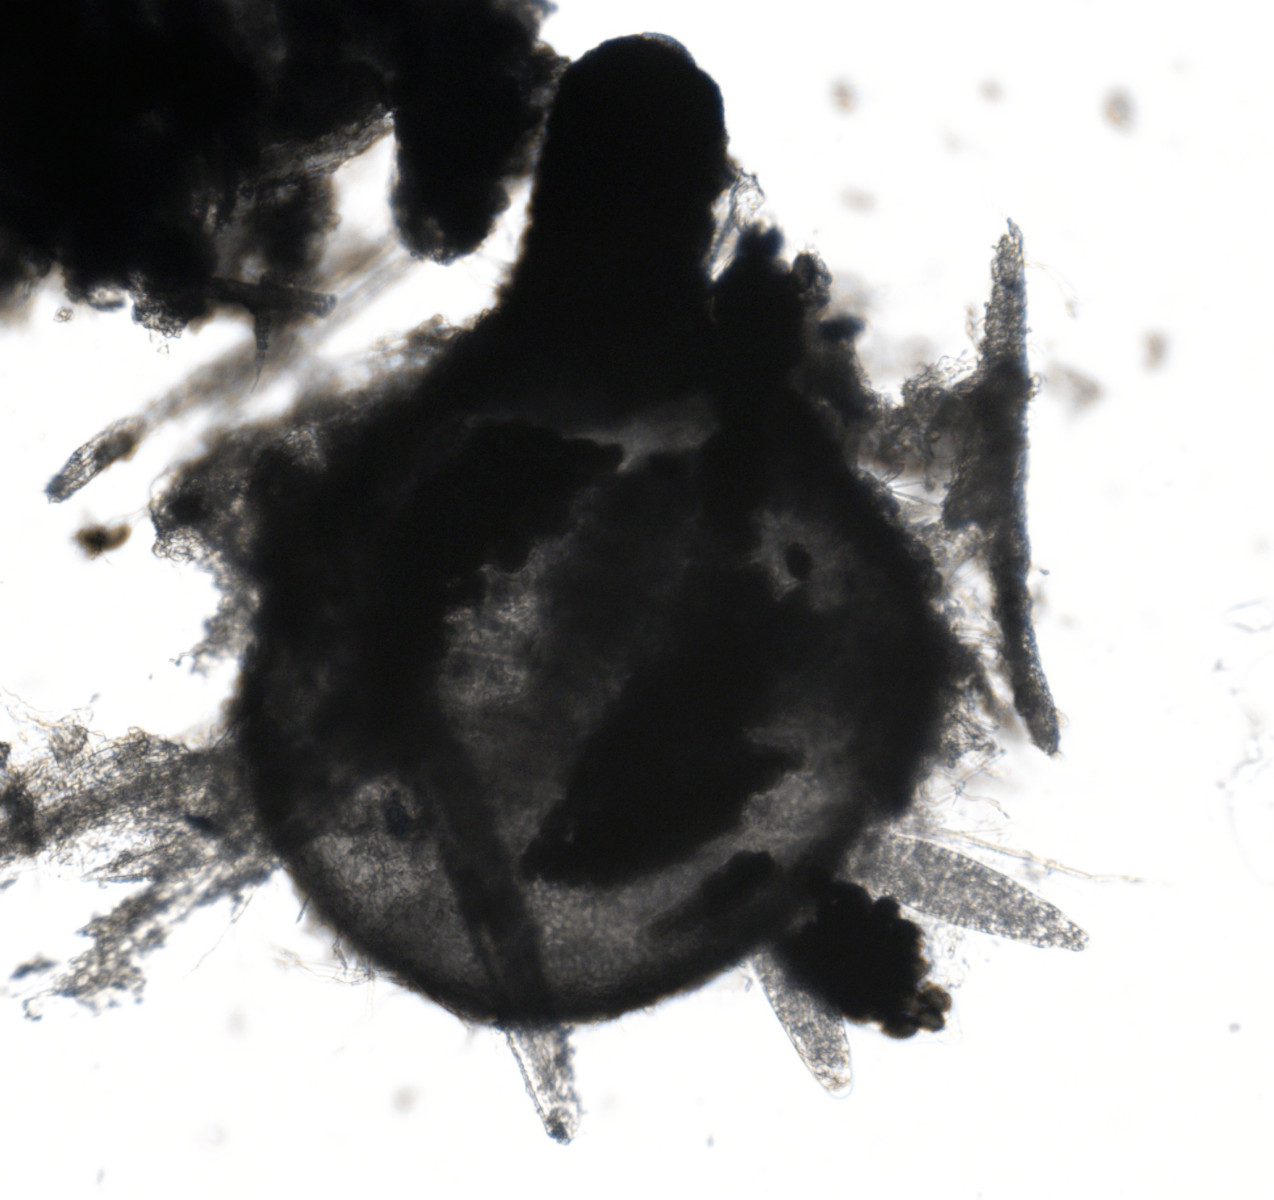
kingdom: Fungi
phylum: Ascomycota
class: Sordariomycetes
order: Sordariales
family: Podosporaceae
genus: Podospora
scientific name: Podospora myriaspora
